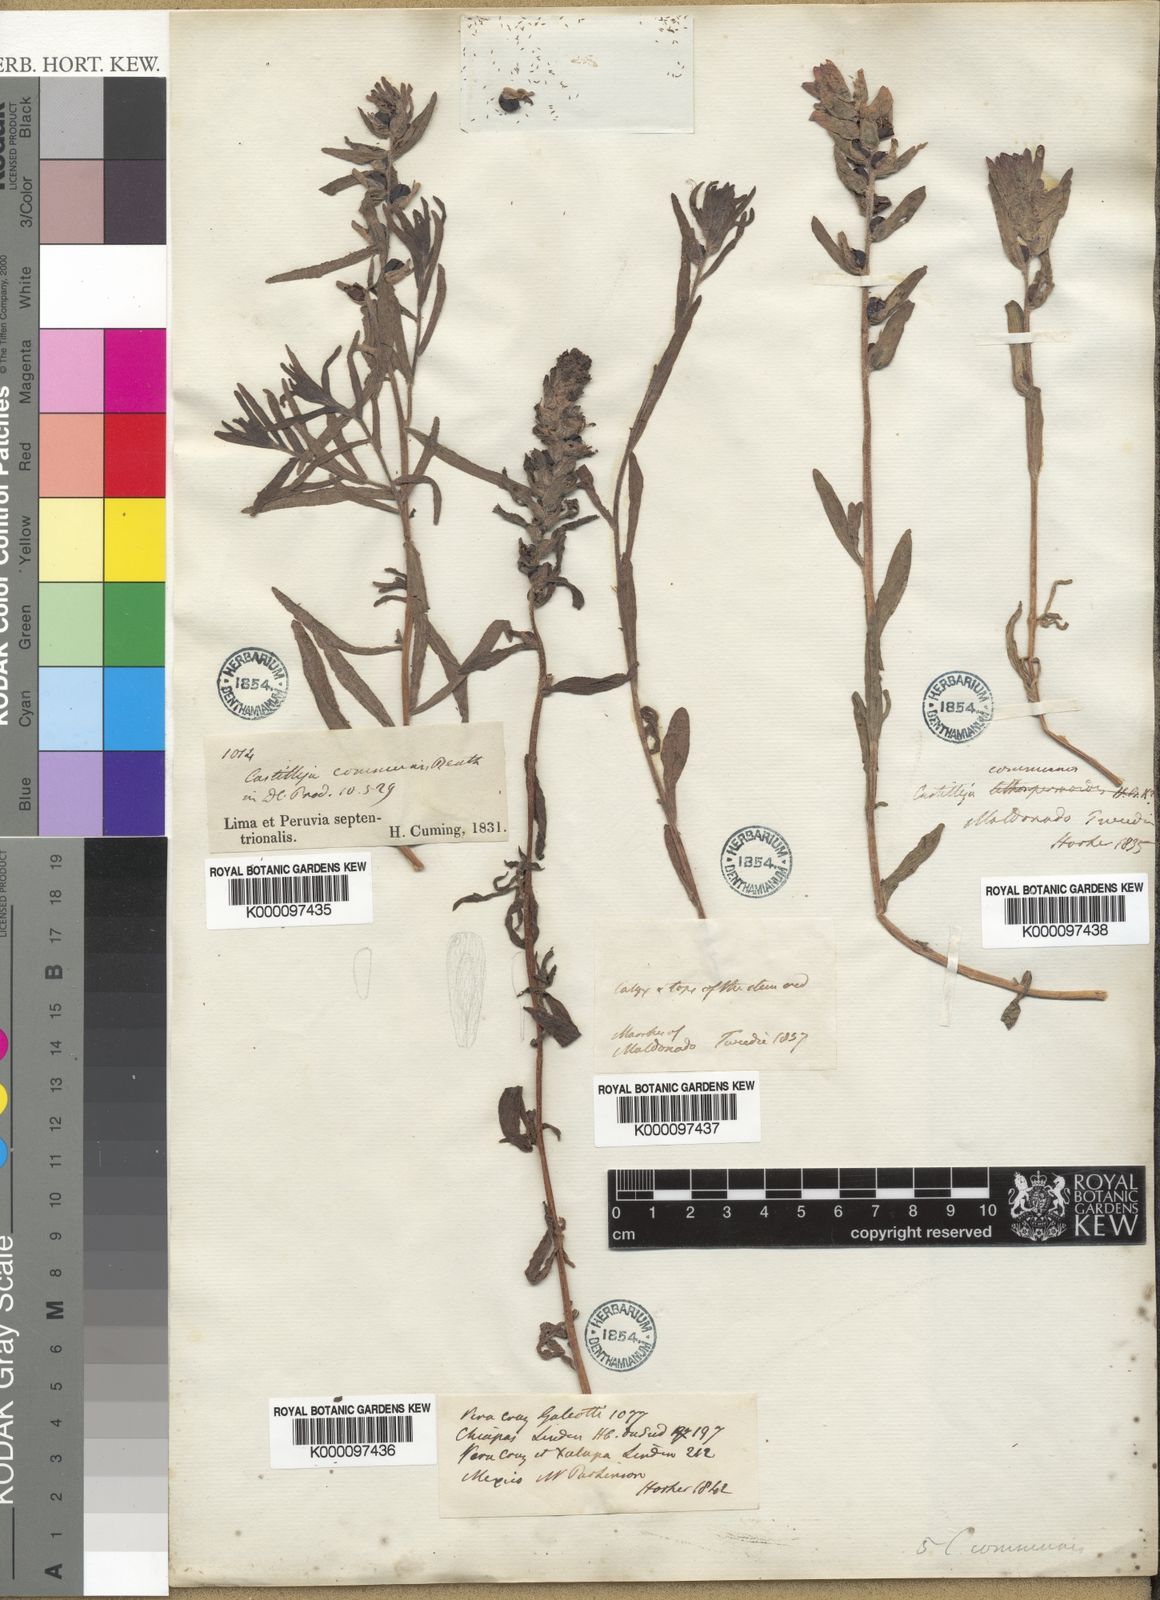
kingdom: Plantae
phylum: Tracheophyta
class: Magnoliopsida
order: Lamiales
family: Orobanchaceae
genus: Castilleja
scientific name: Castilleja arvensis
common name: Indian paintbrush
